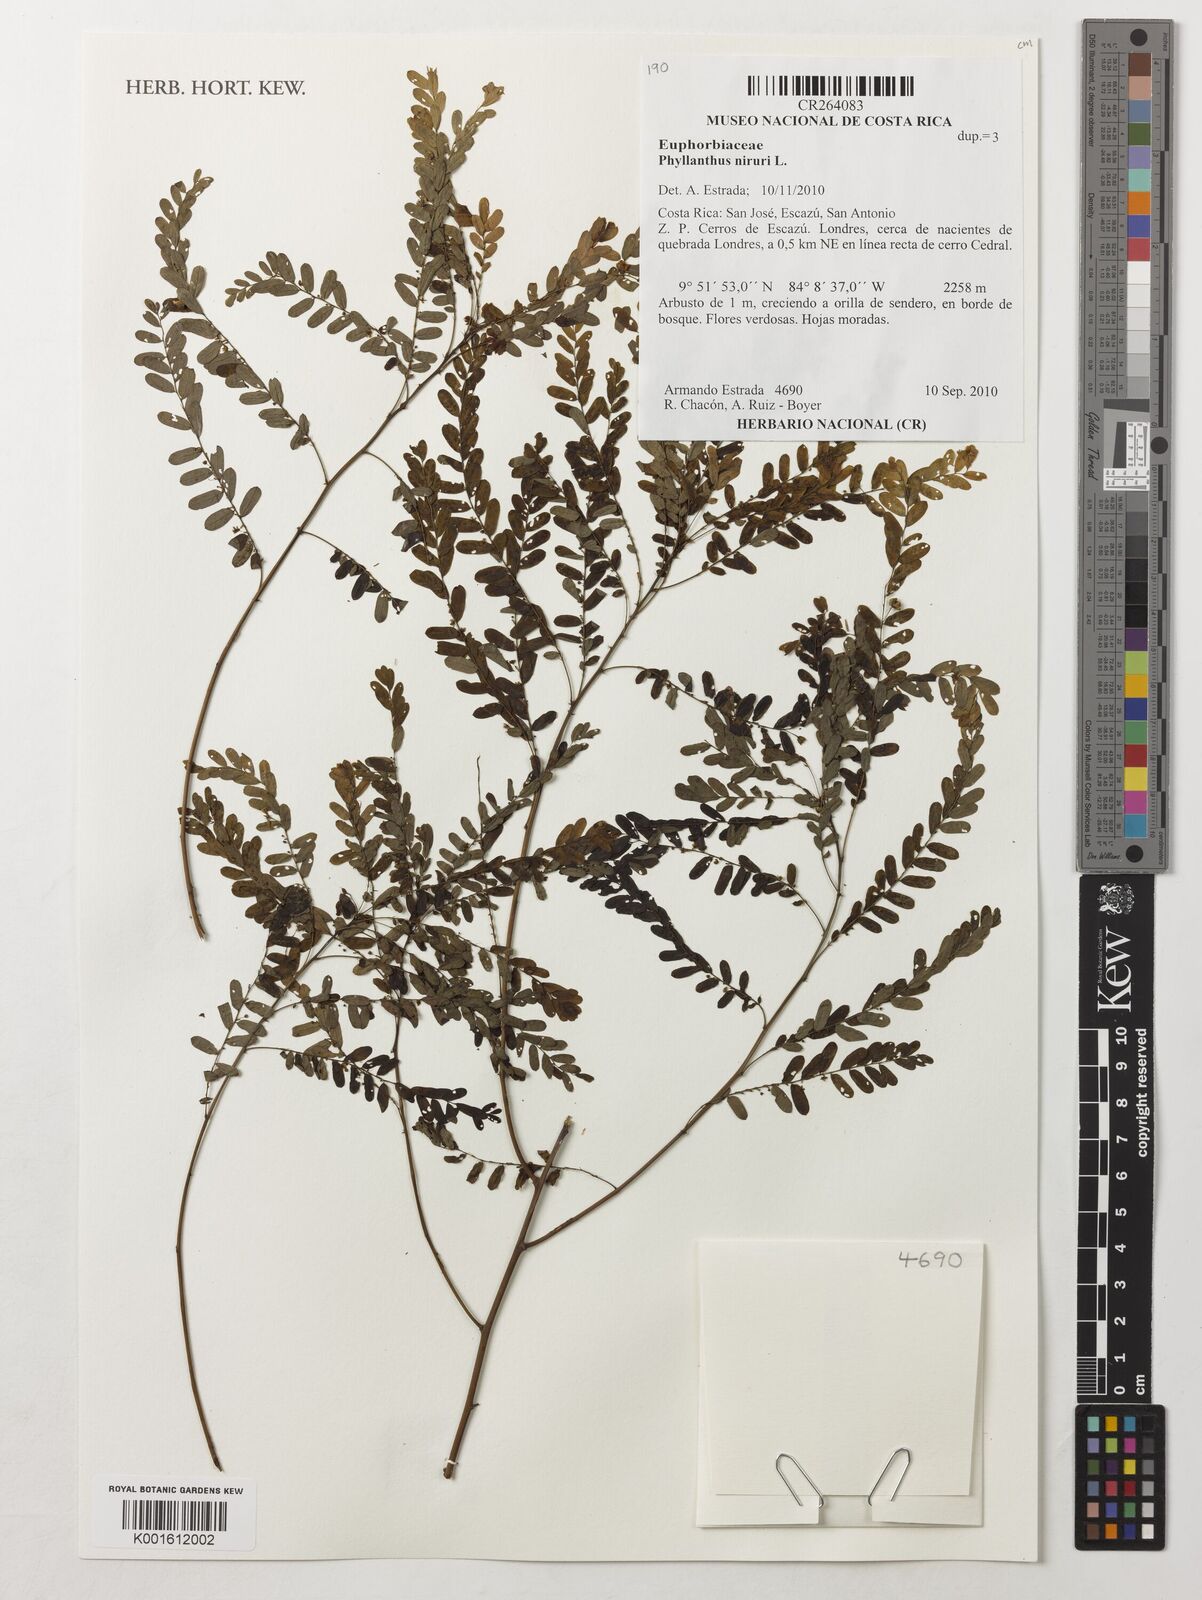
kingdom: Plantae
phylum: Tracheophyta
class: Magnoliopsida
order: Malpighiales
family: Phyllanthaceae
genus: Phyllanthus
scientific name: Phyllanthus niruri
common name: Niruri
